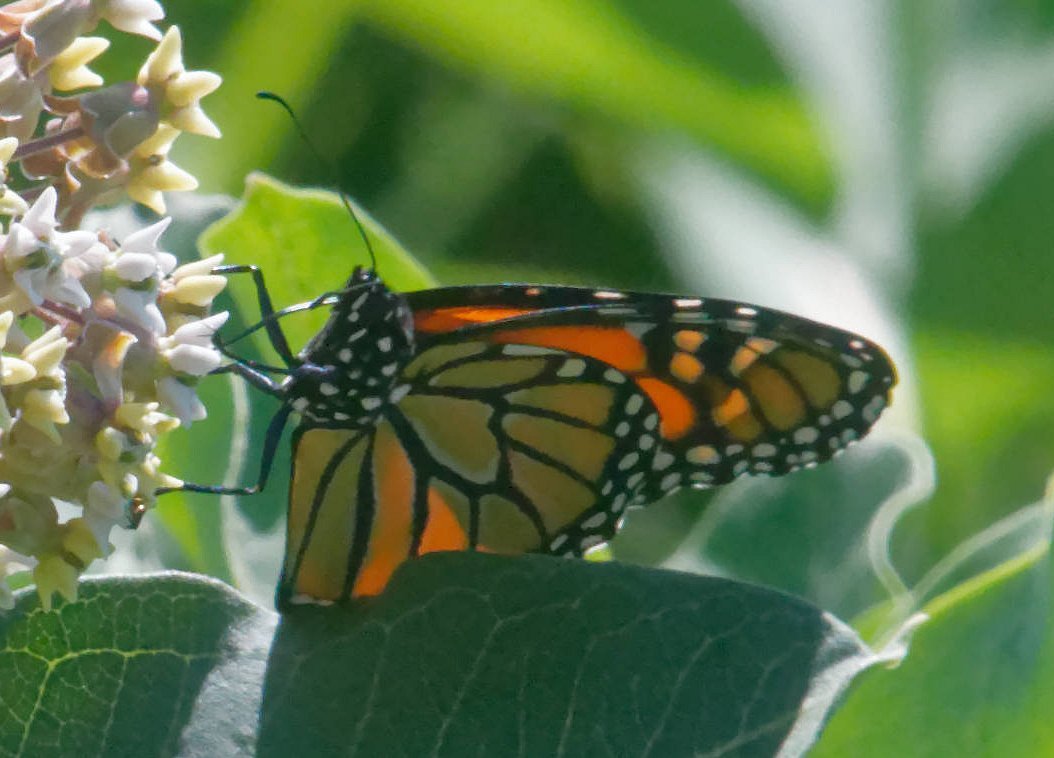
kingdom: Animalia
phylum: Arthropoda
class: Insecta
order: Lepidoptera
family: Nymphalidae
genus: Danaus
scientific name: Danaus plexippus
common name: Monarch
